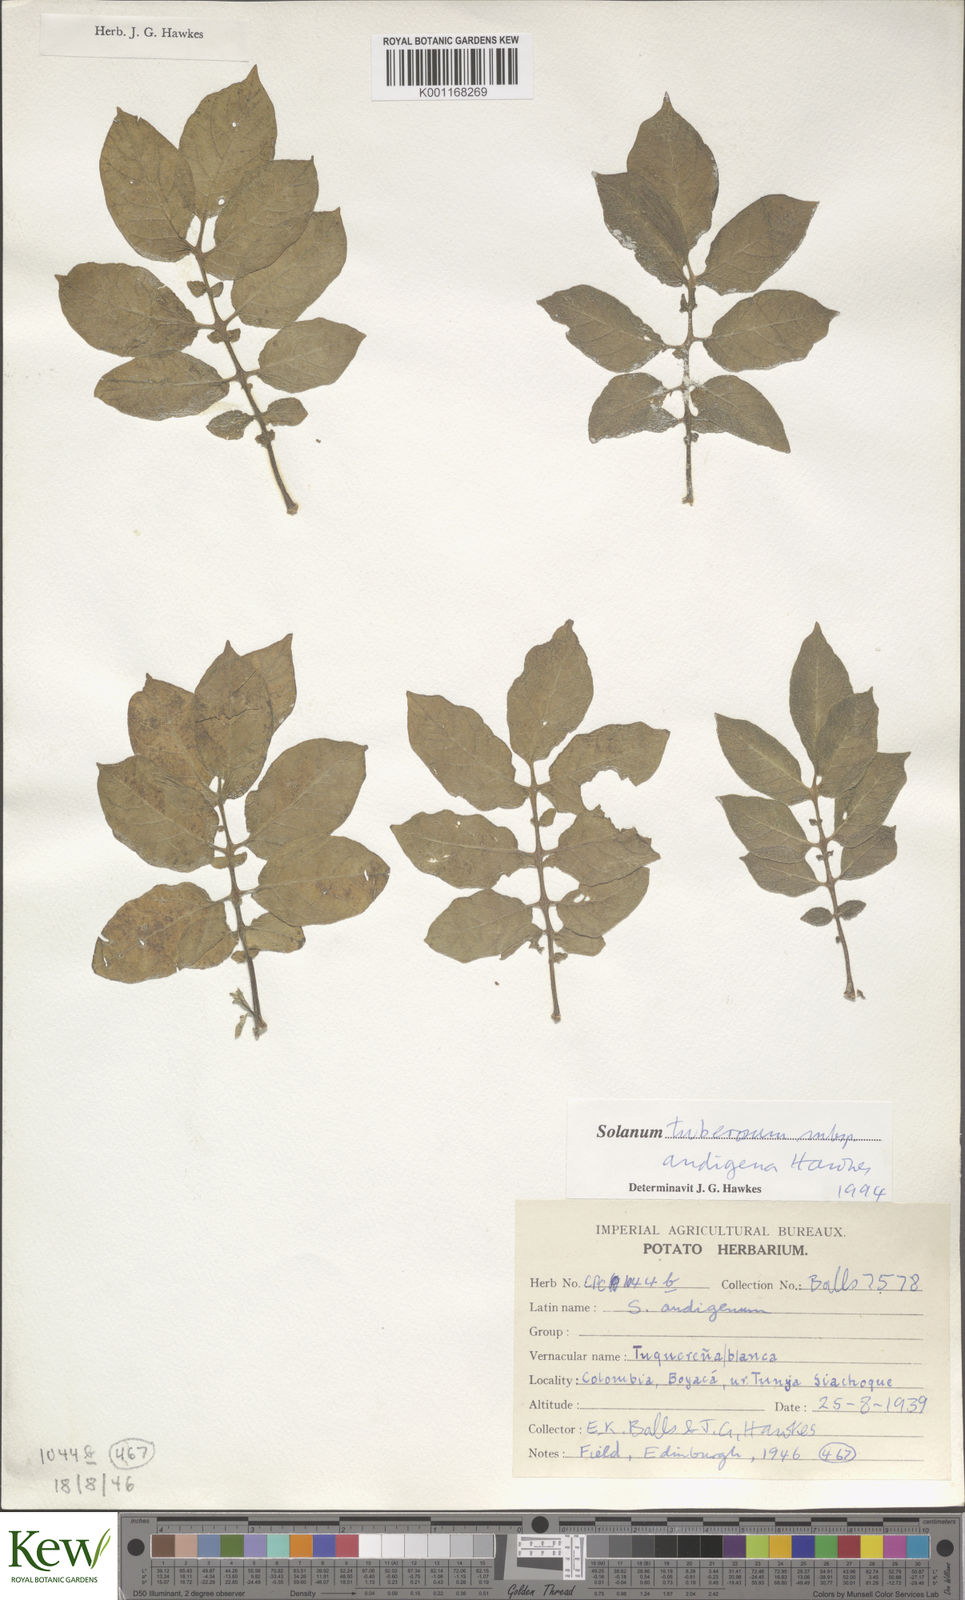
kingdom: Plantae
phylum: Tracheophyta
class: Magnoliopsida
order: Solanales
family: Solanaceae
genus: Solanum
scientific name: Solanum tuberosum
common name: Potato
